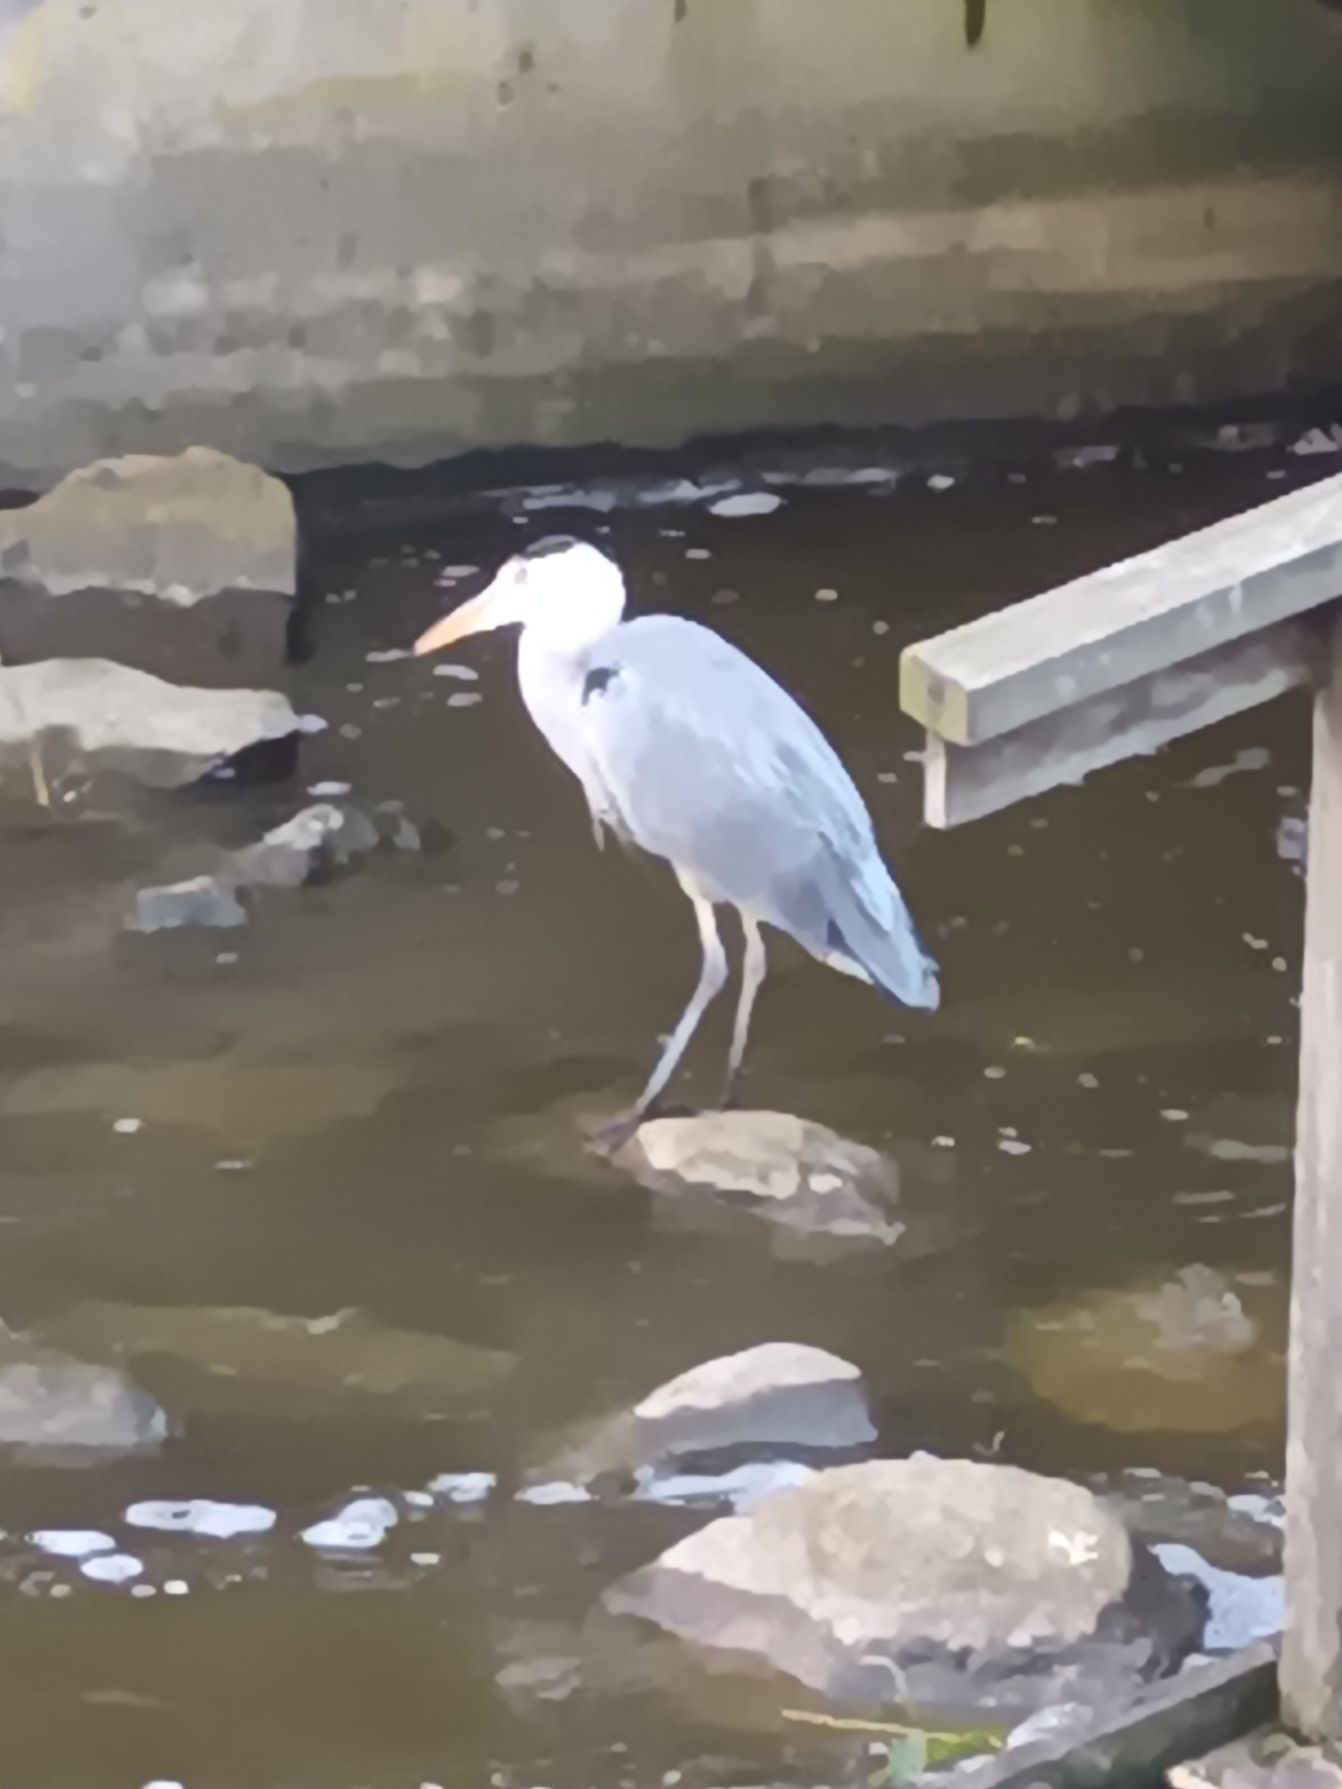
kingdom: Animalia
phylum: Chordata
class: Aves
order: Pelecaniformes
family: Ardeidae
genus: Ardea
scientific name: Ardea cinerea
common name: Fiskehejre
